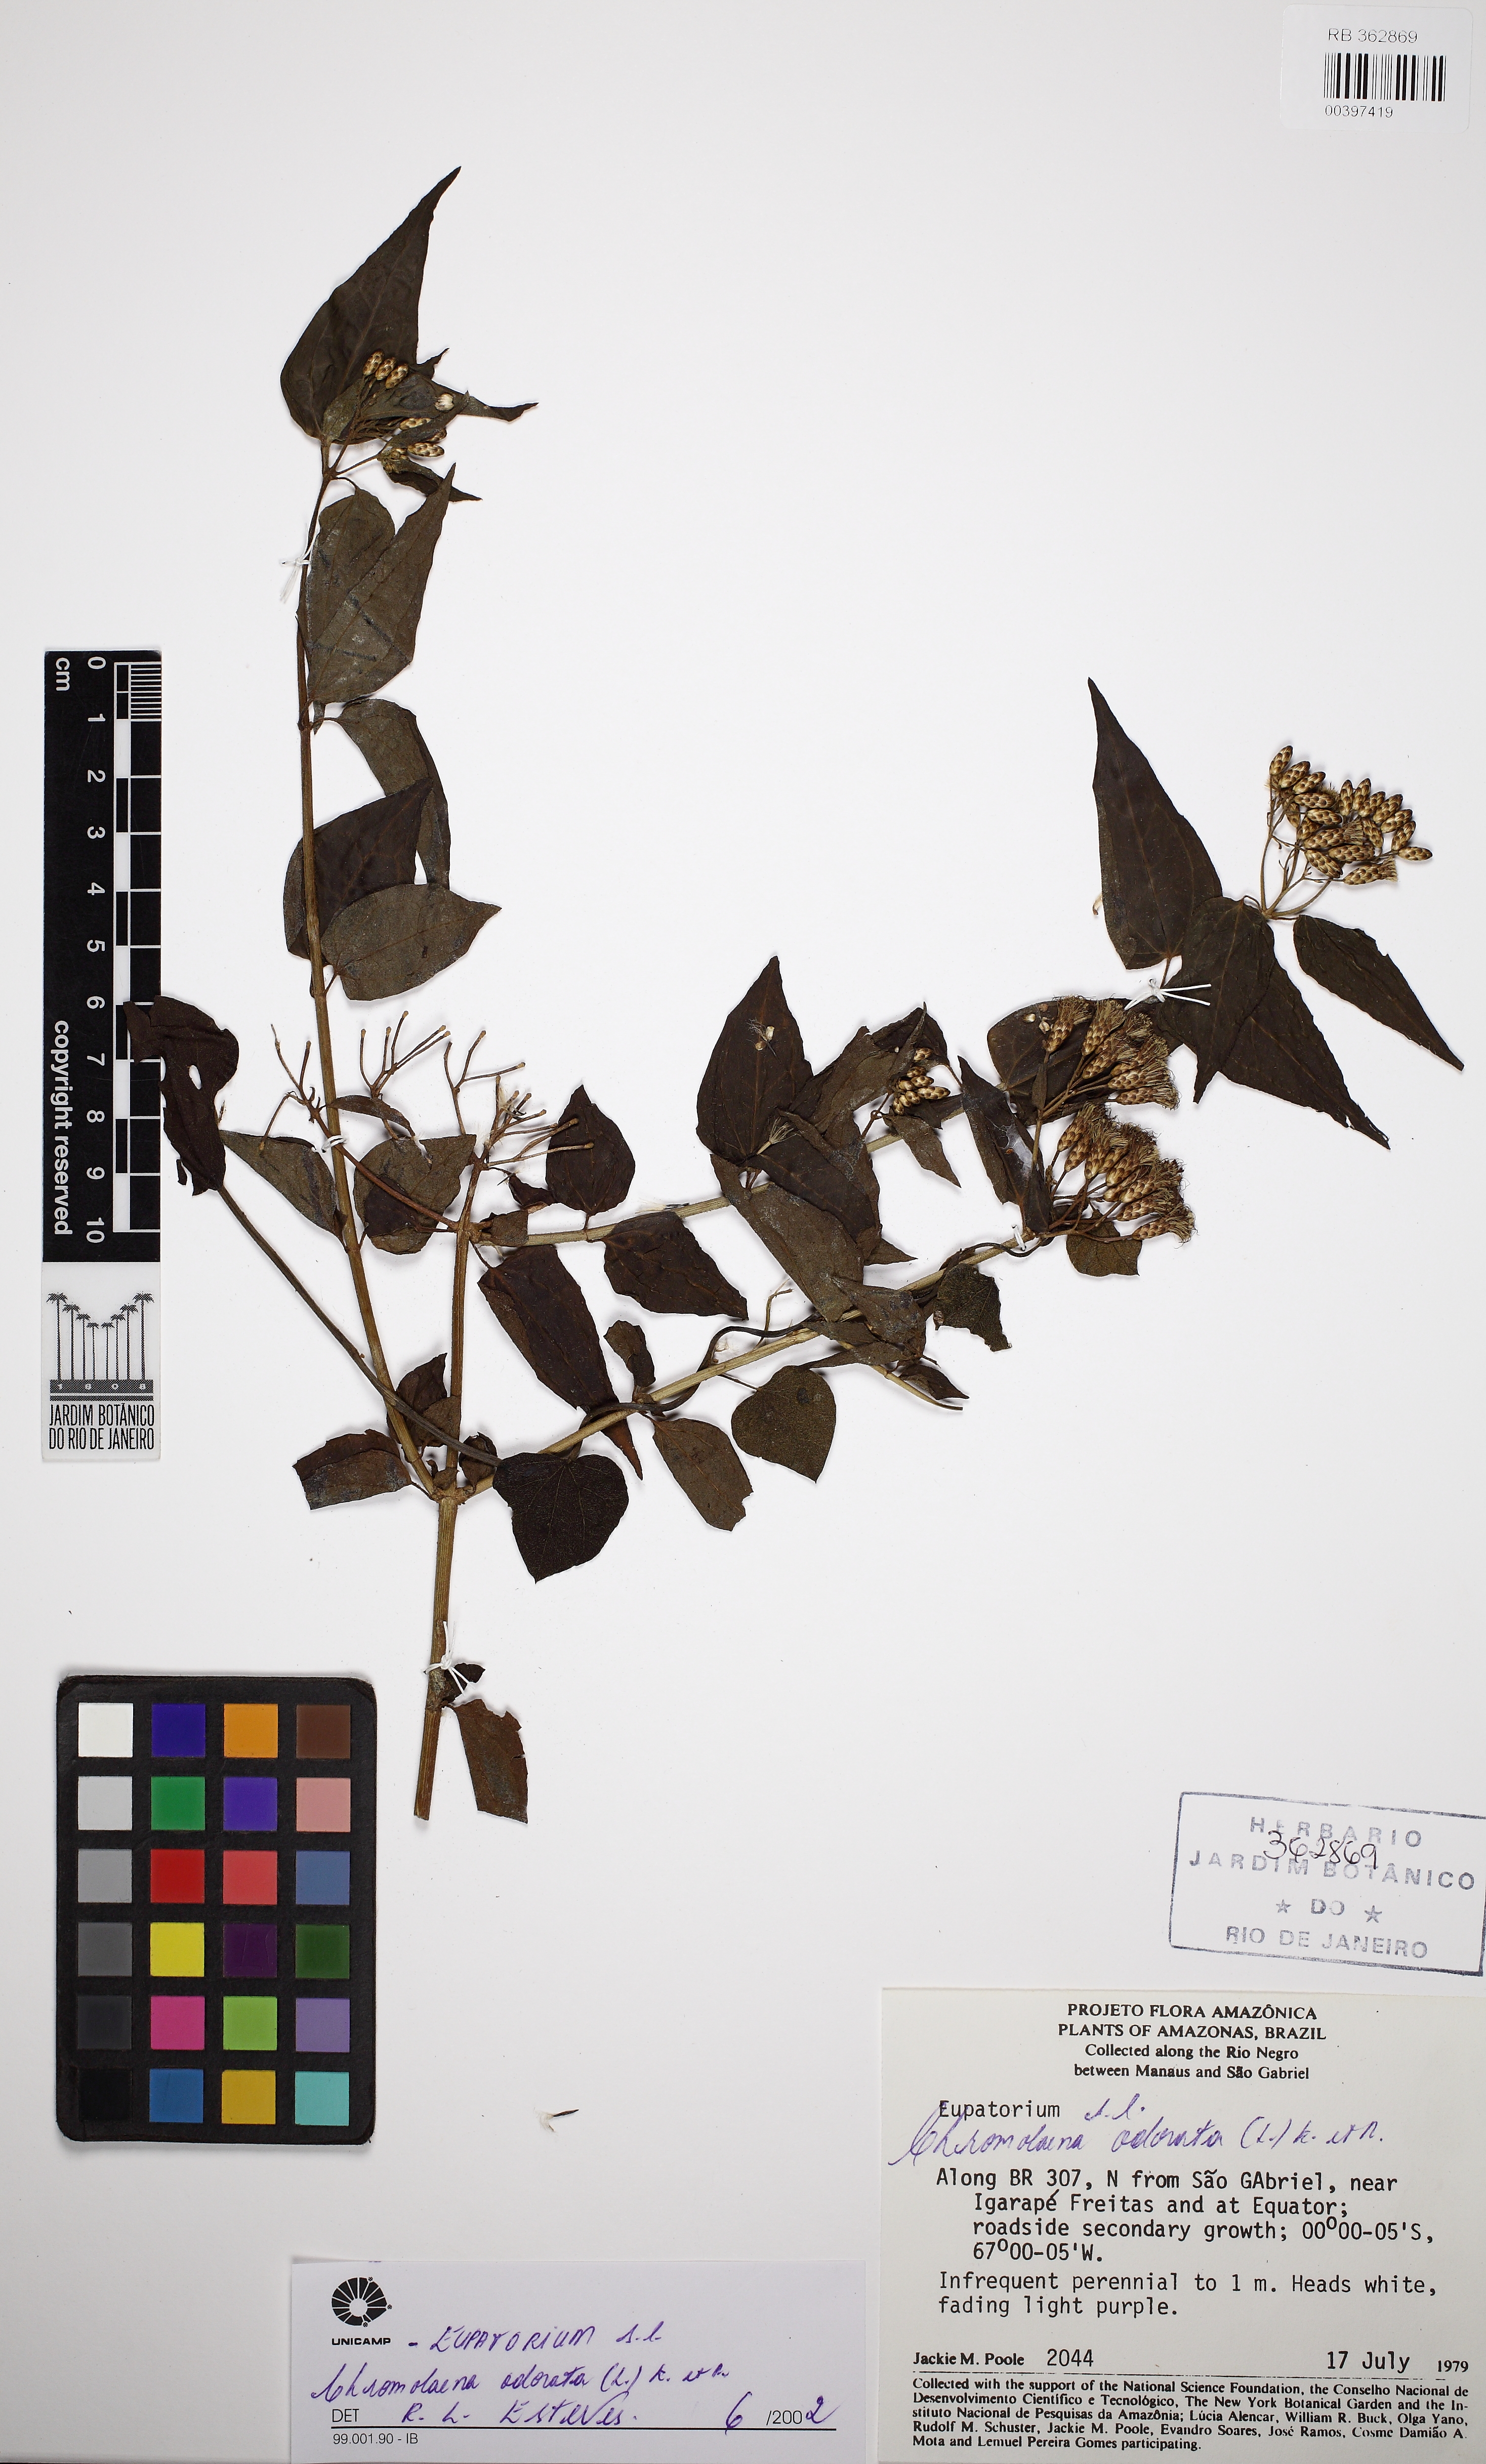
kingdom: Plantae
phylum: Tracheophyta
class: Magnoliopsida
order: Asterales
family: Asteraceae
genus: Chromolaena
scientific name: Chromolaena odorata
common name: Siamweed
